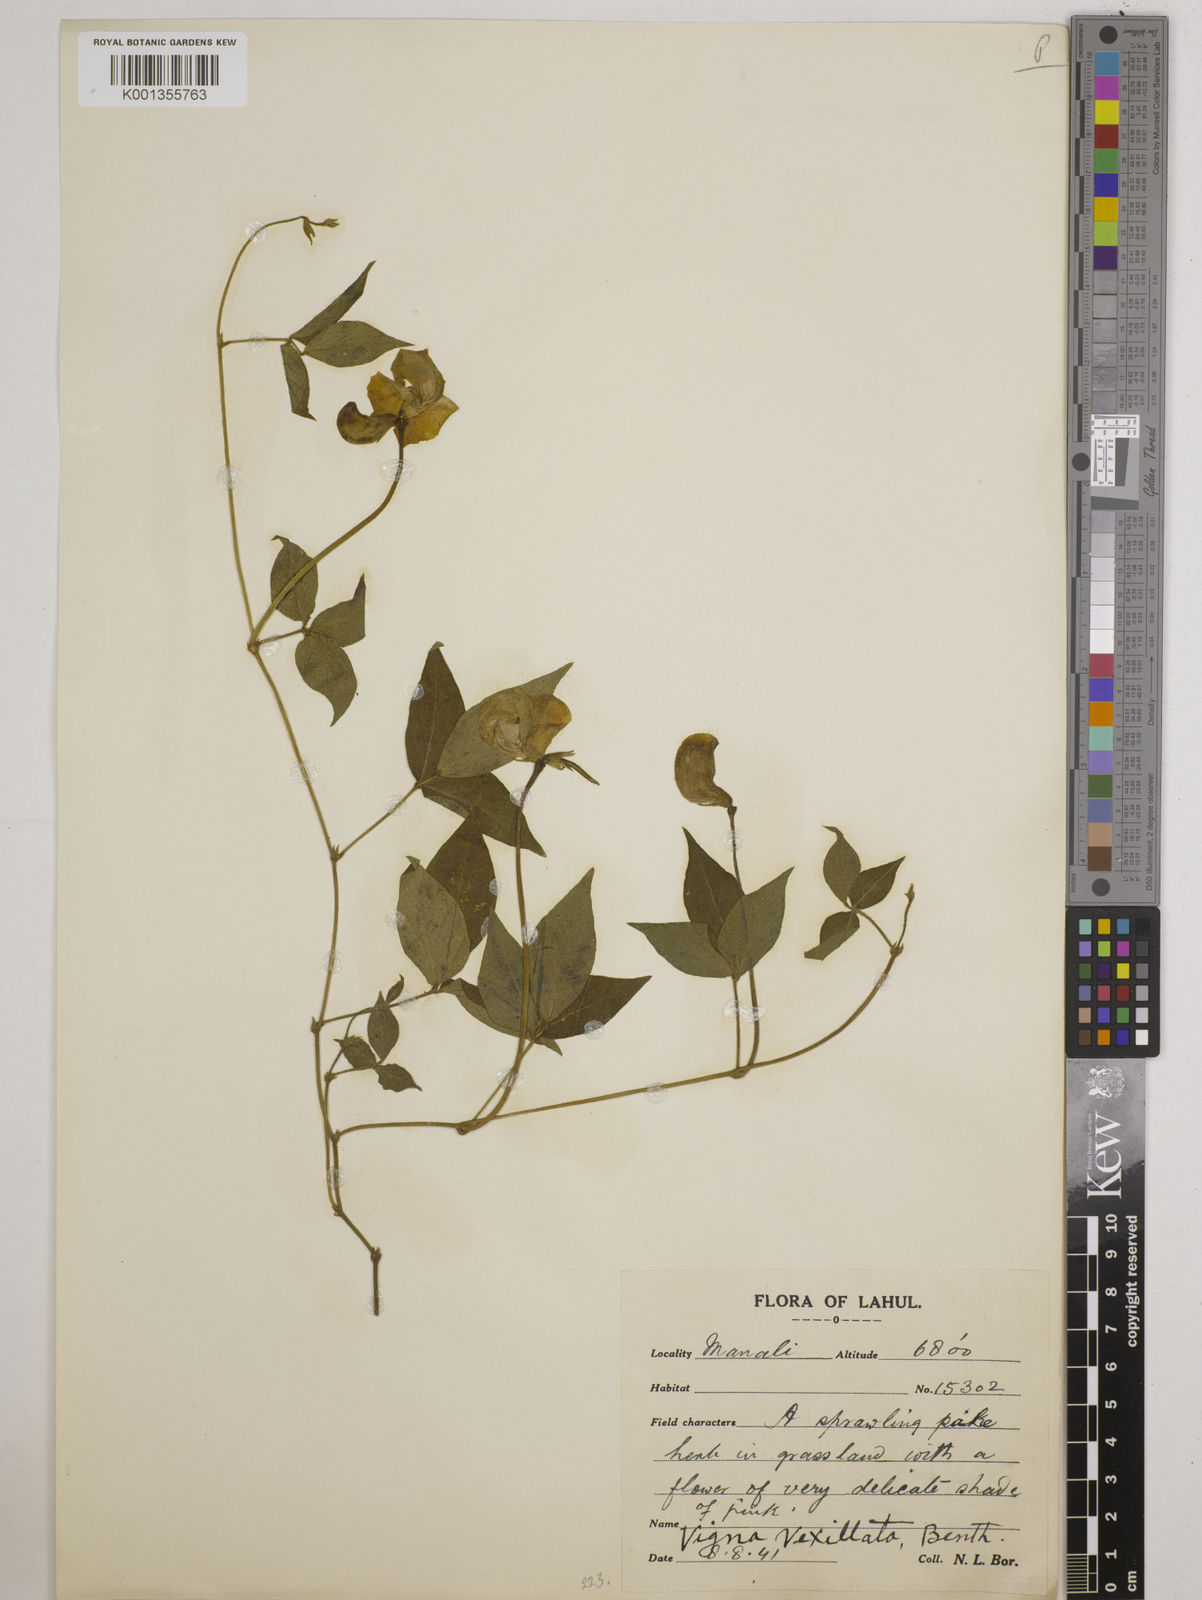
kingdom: Plantae
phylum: Tracheophyta
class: Magnoliopsida
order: Fabales
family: Fabaceae
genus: Vigna
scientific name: Vigna vexillata
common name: Zombi pea
